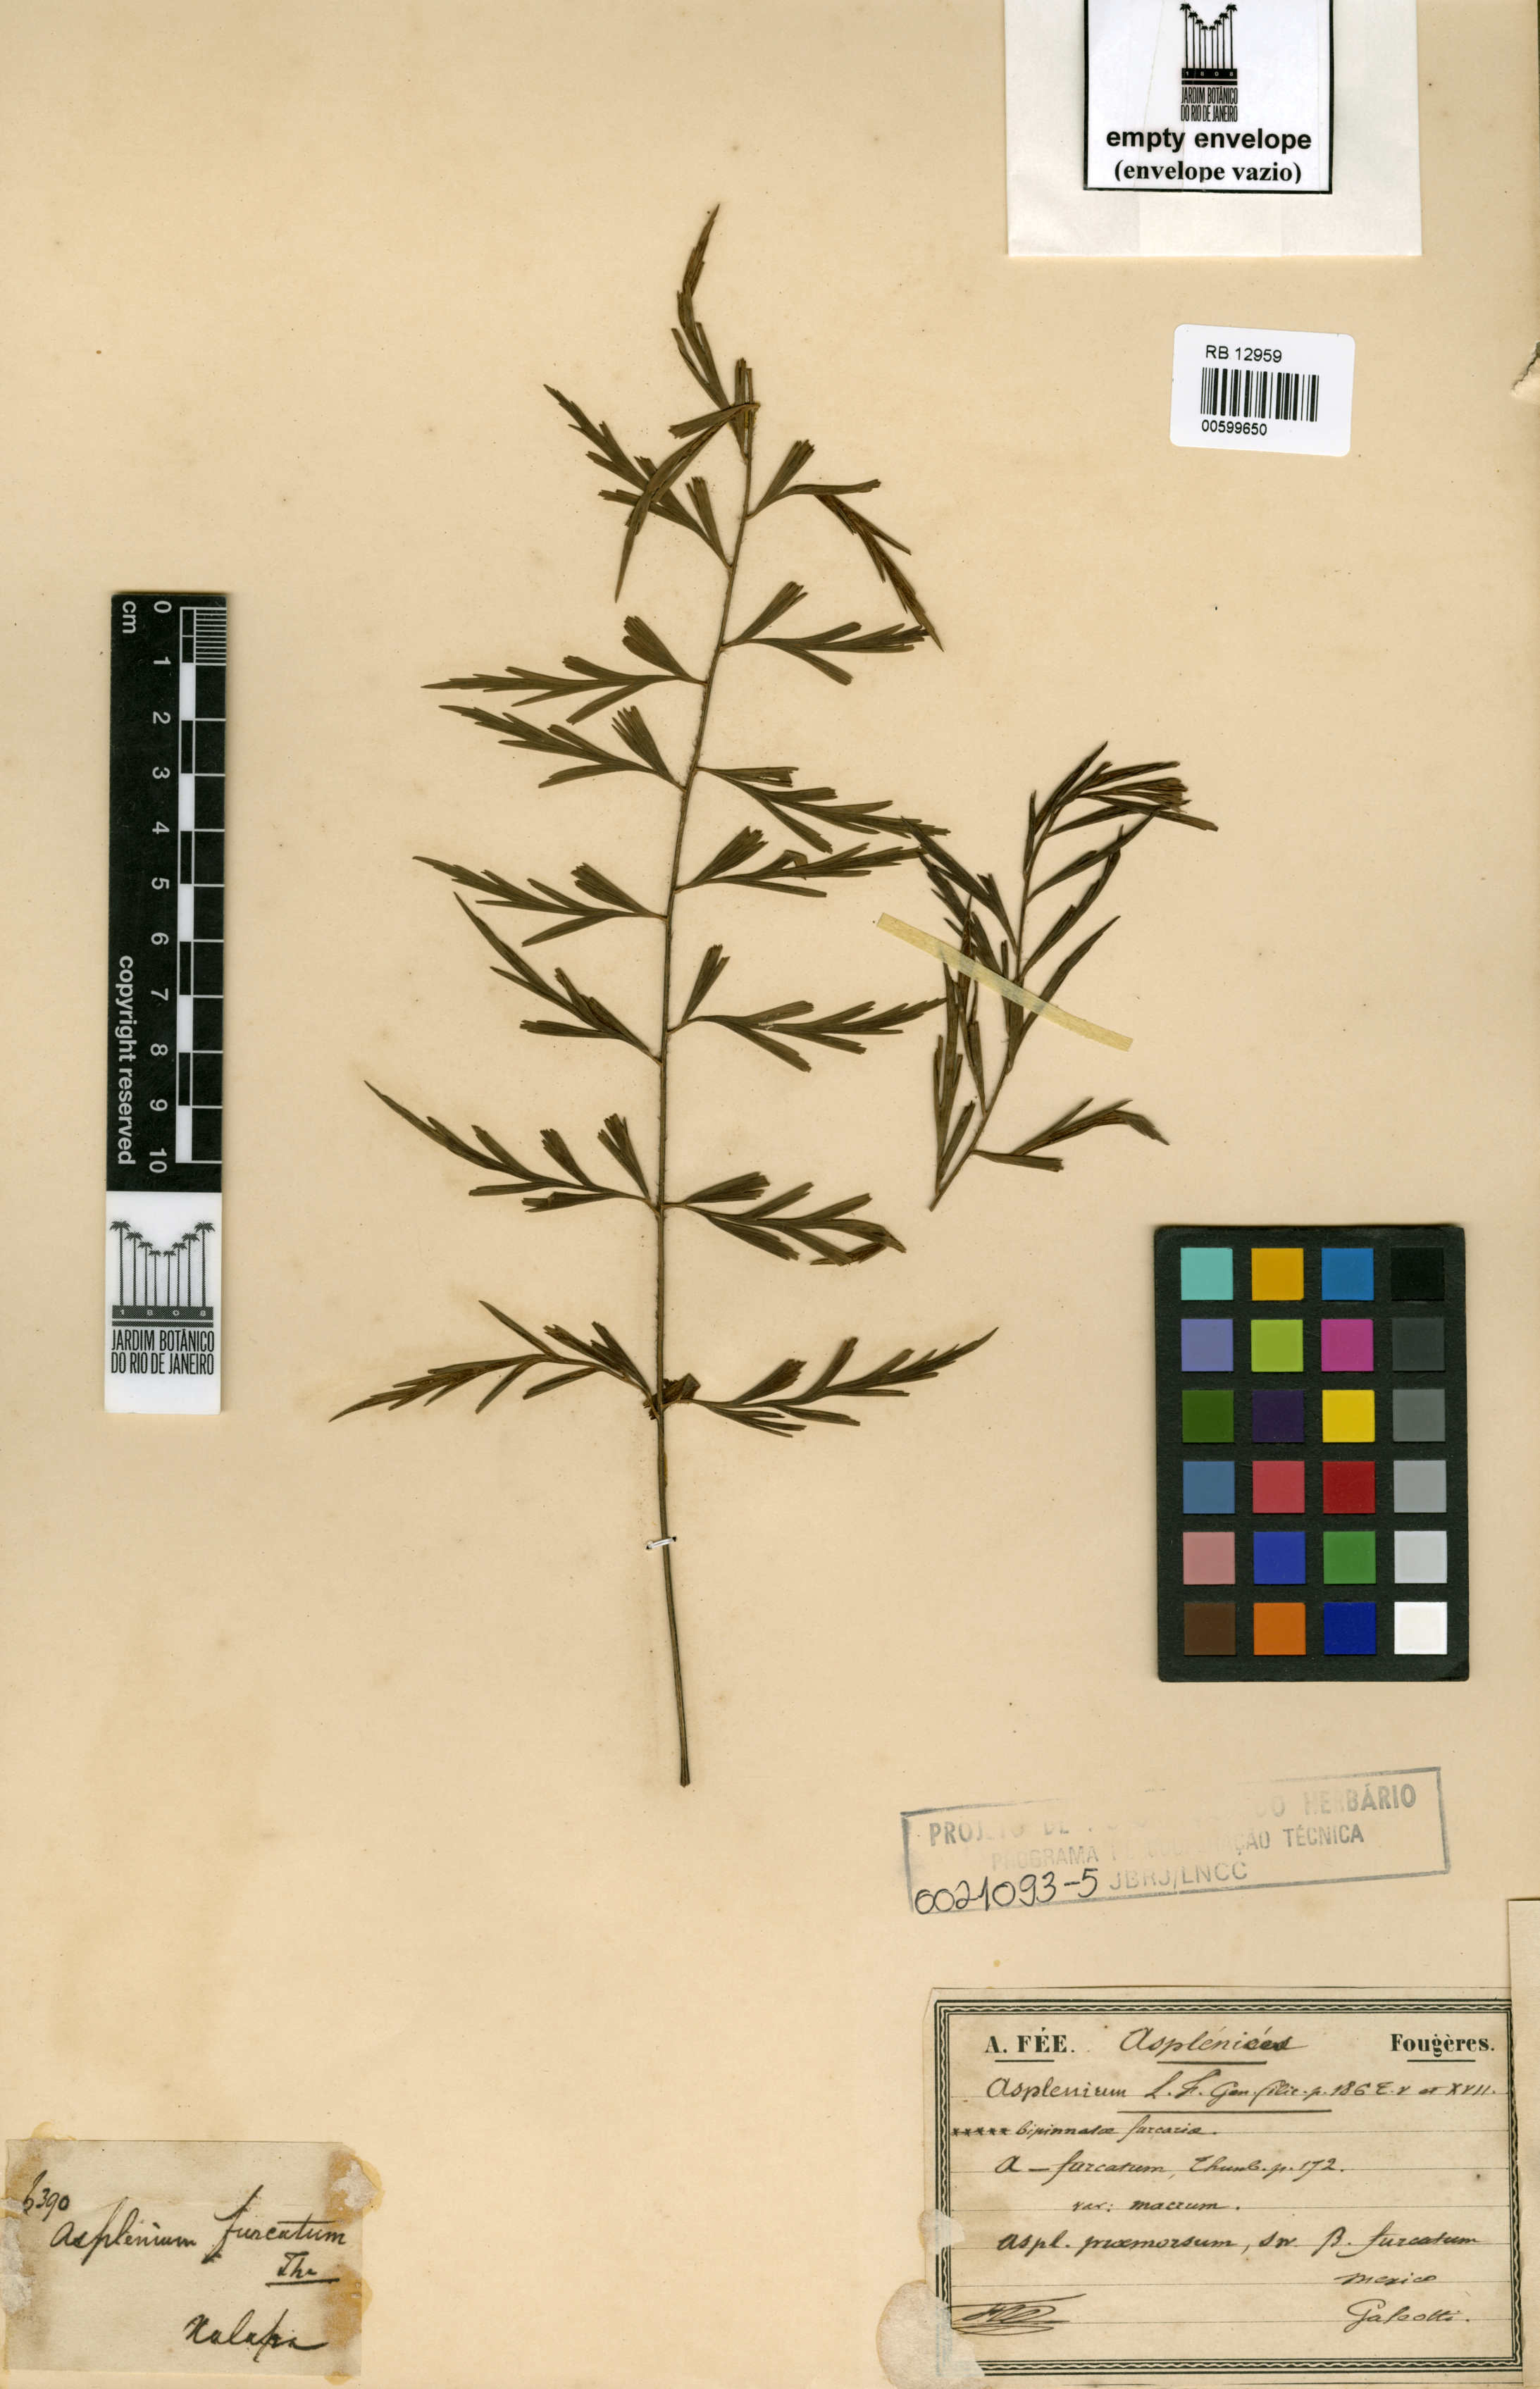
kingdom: Plantae
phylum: Tracheophyta
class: Polypodiopsida
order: Polypodiales
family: Aspleniaceae
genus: Asplenium
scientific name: Asplenium praemorsum
